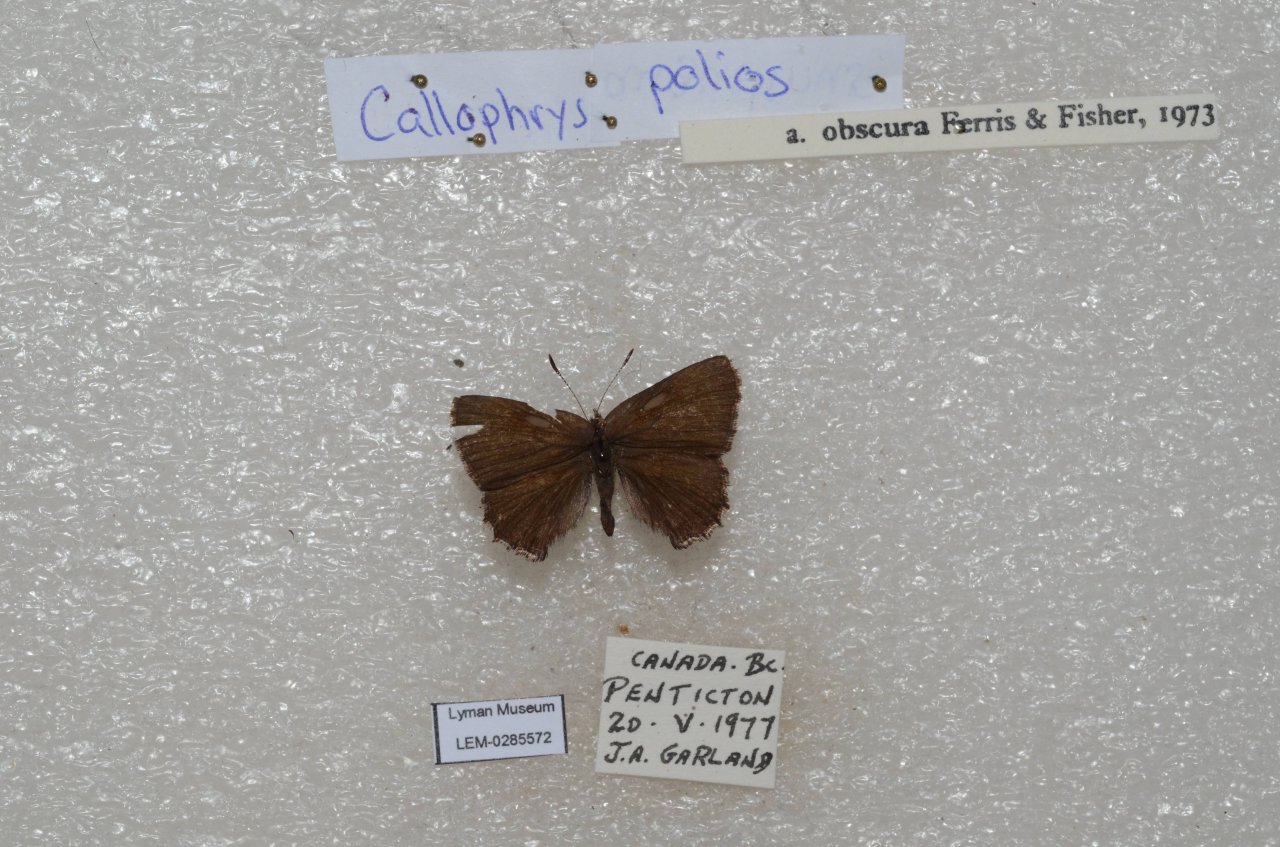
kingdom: Animalia
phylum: Arthropoda
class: Insecta
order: Lepidoptera
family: Lycaenidae
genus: Callophrys
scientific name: Callophrys polios
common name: Hoary Elfin
